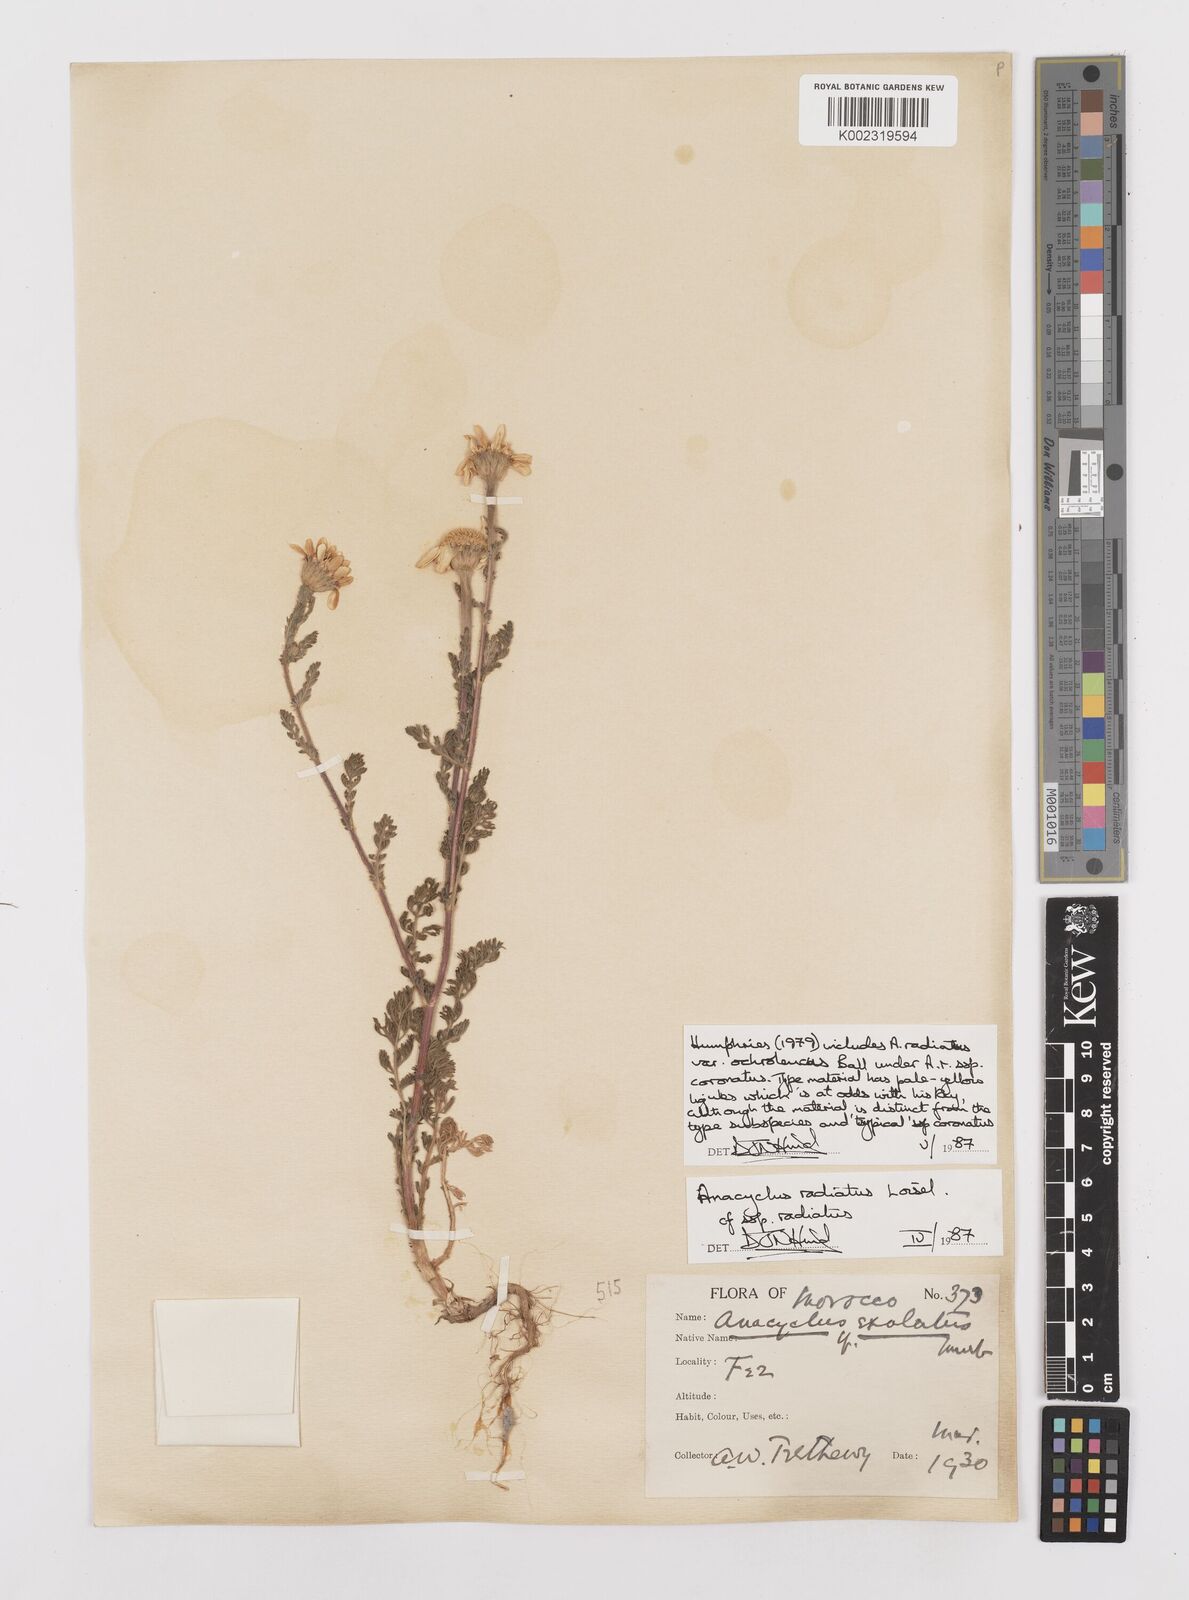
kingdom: Plantae
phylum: Tracheophyta
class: Magnoliopsida
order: Asterales
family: Asteraceae
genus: Anacyclus
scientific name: Anacyclus radiatus
